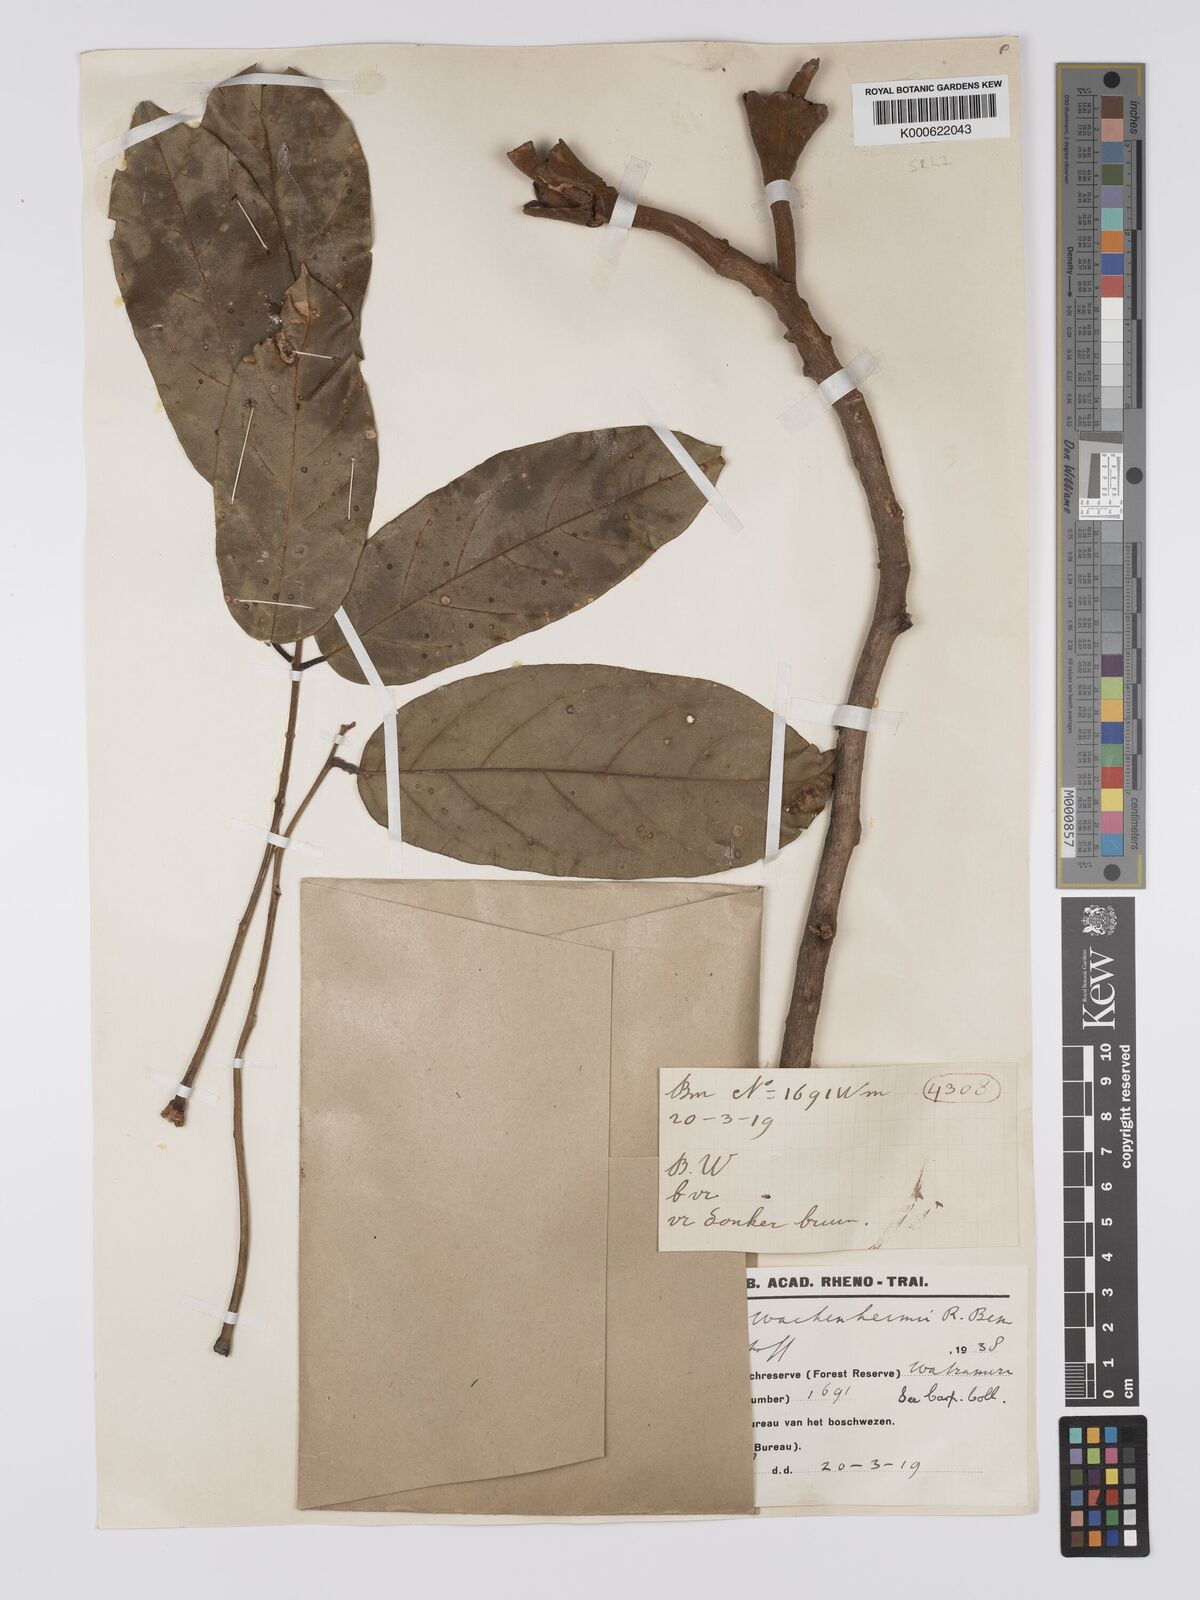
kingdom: Plantae
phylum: Tracheophyta
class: Magnoliopsida
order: Fabales
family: Fabaceae
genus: Alexa
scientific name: Alexa wachenheimii
